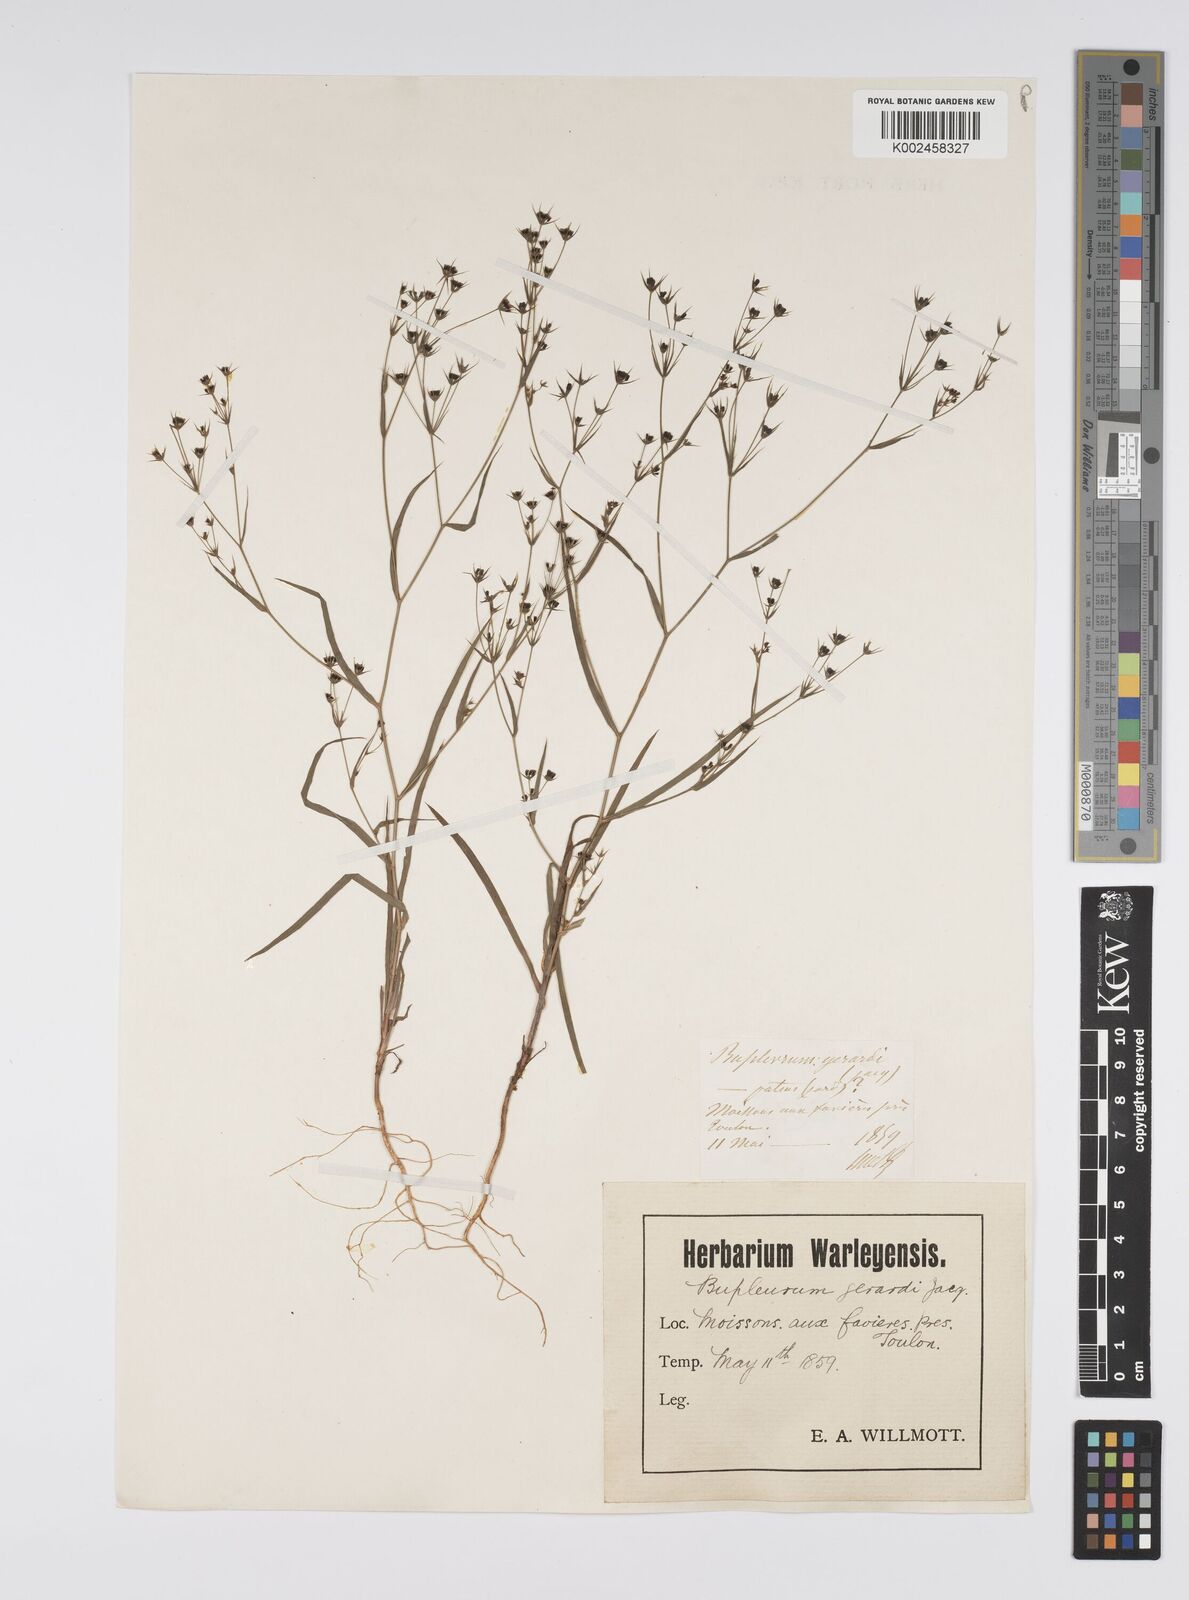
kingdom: Plantae
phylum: Tracheophyta
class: Magnoliopsida
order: Apiales
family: Apiaceae
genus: Bupleurum
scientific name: Bupleurum gerardi
